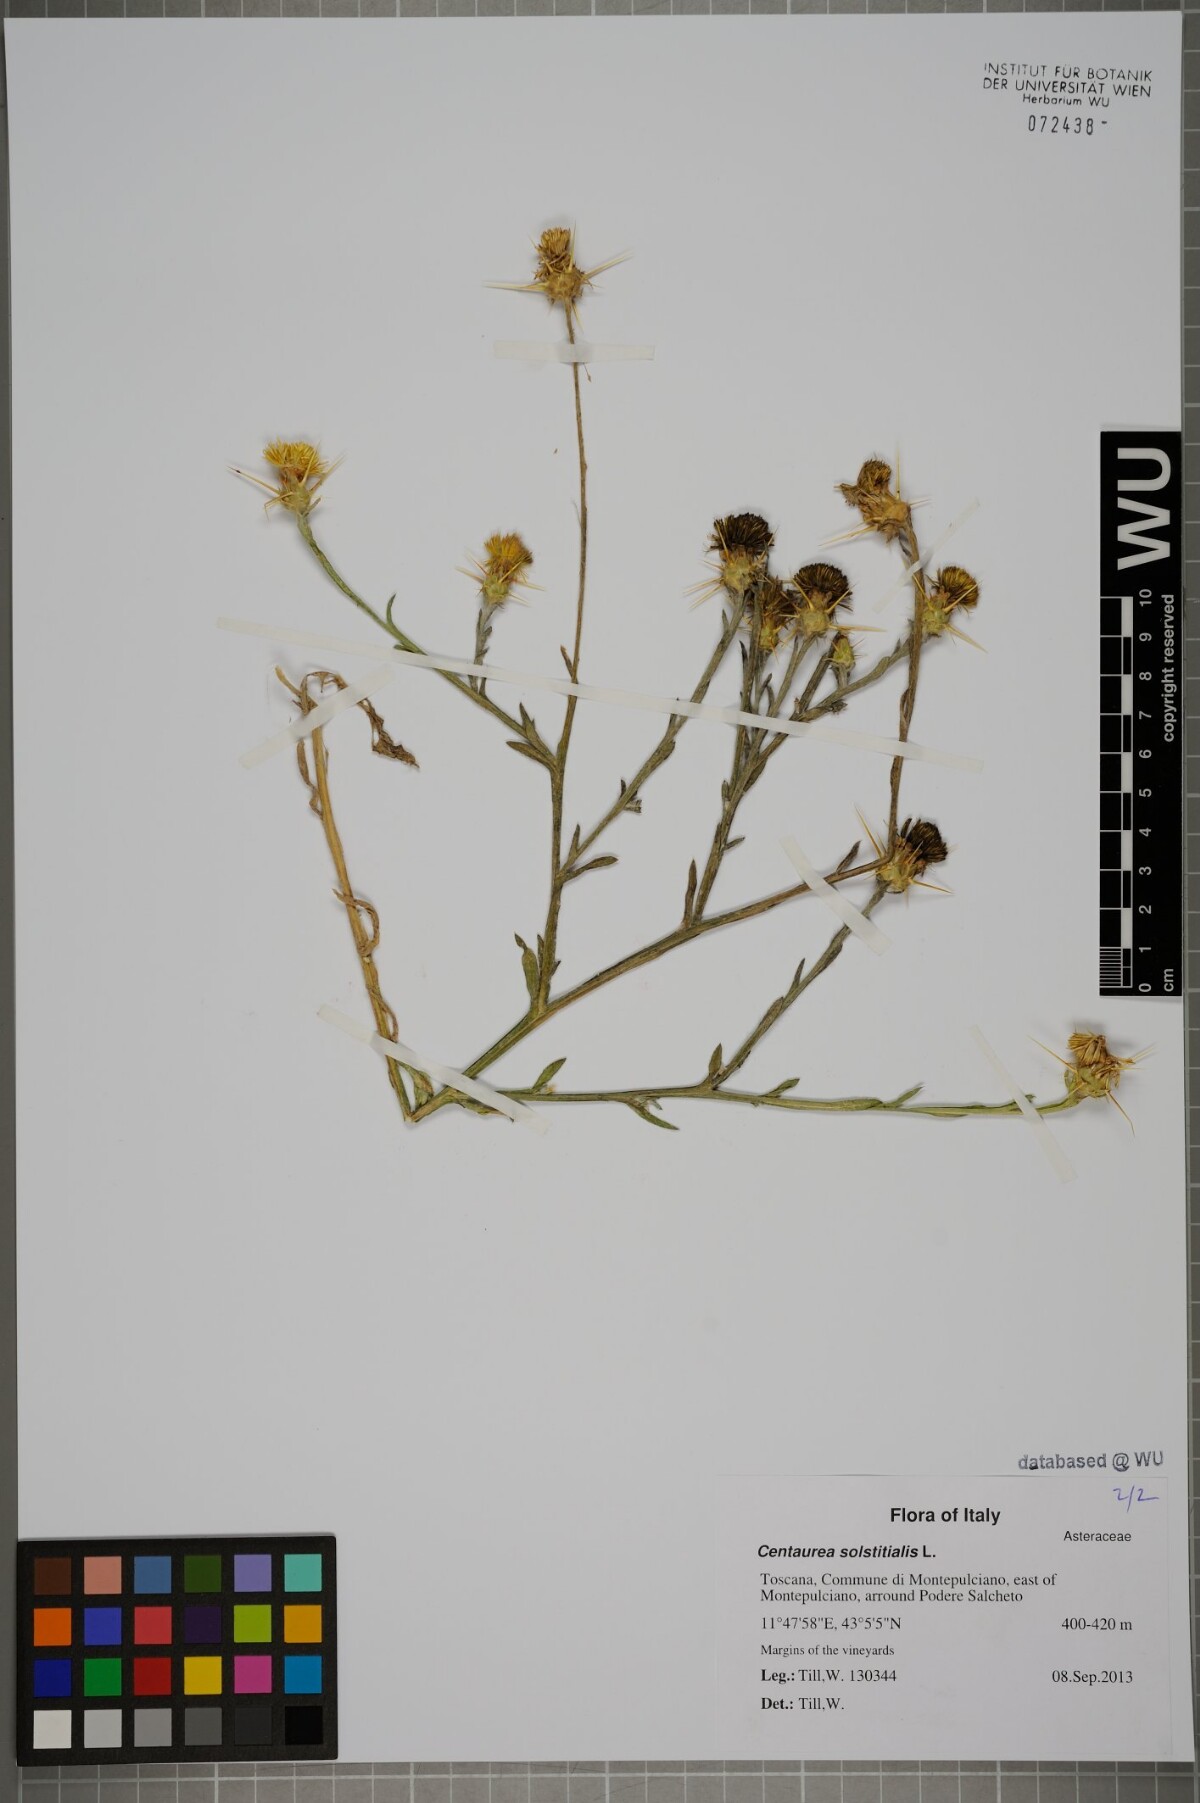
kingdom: Plantae
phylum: Tracheophyta
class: Magnoliopsida
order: Asterales
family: Asteraceae
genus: Centaurea
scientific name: Centaurea solstitialis
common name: Yellow star-thistle
